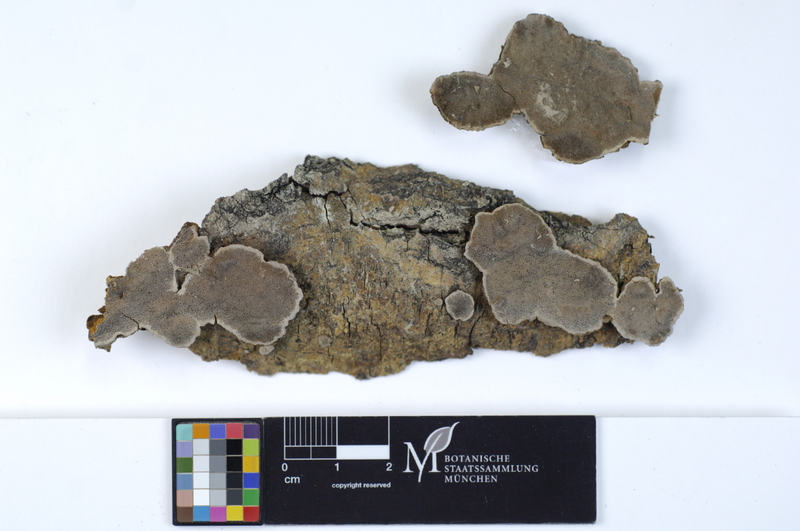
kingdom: Plantae
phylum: Tracheophyta
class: Magnoliopsida
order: Malpighiales
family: Salicaceae
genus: Salix
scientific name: Salix alba
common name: White willow
